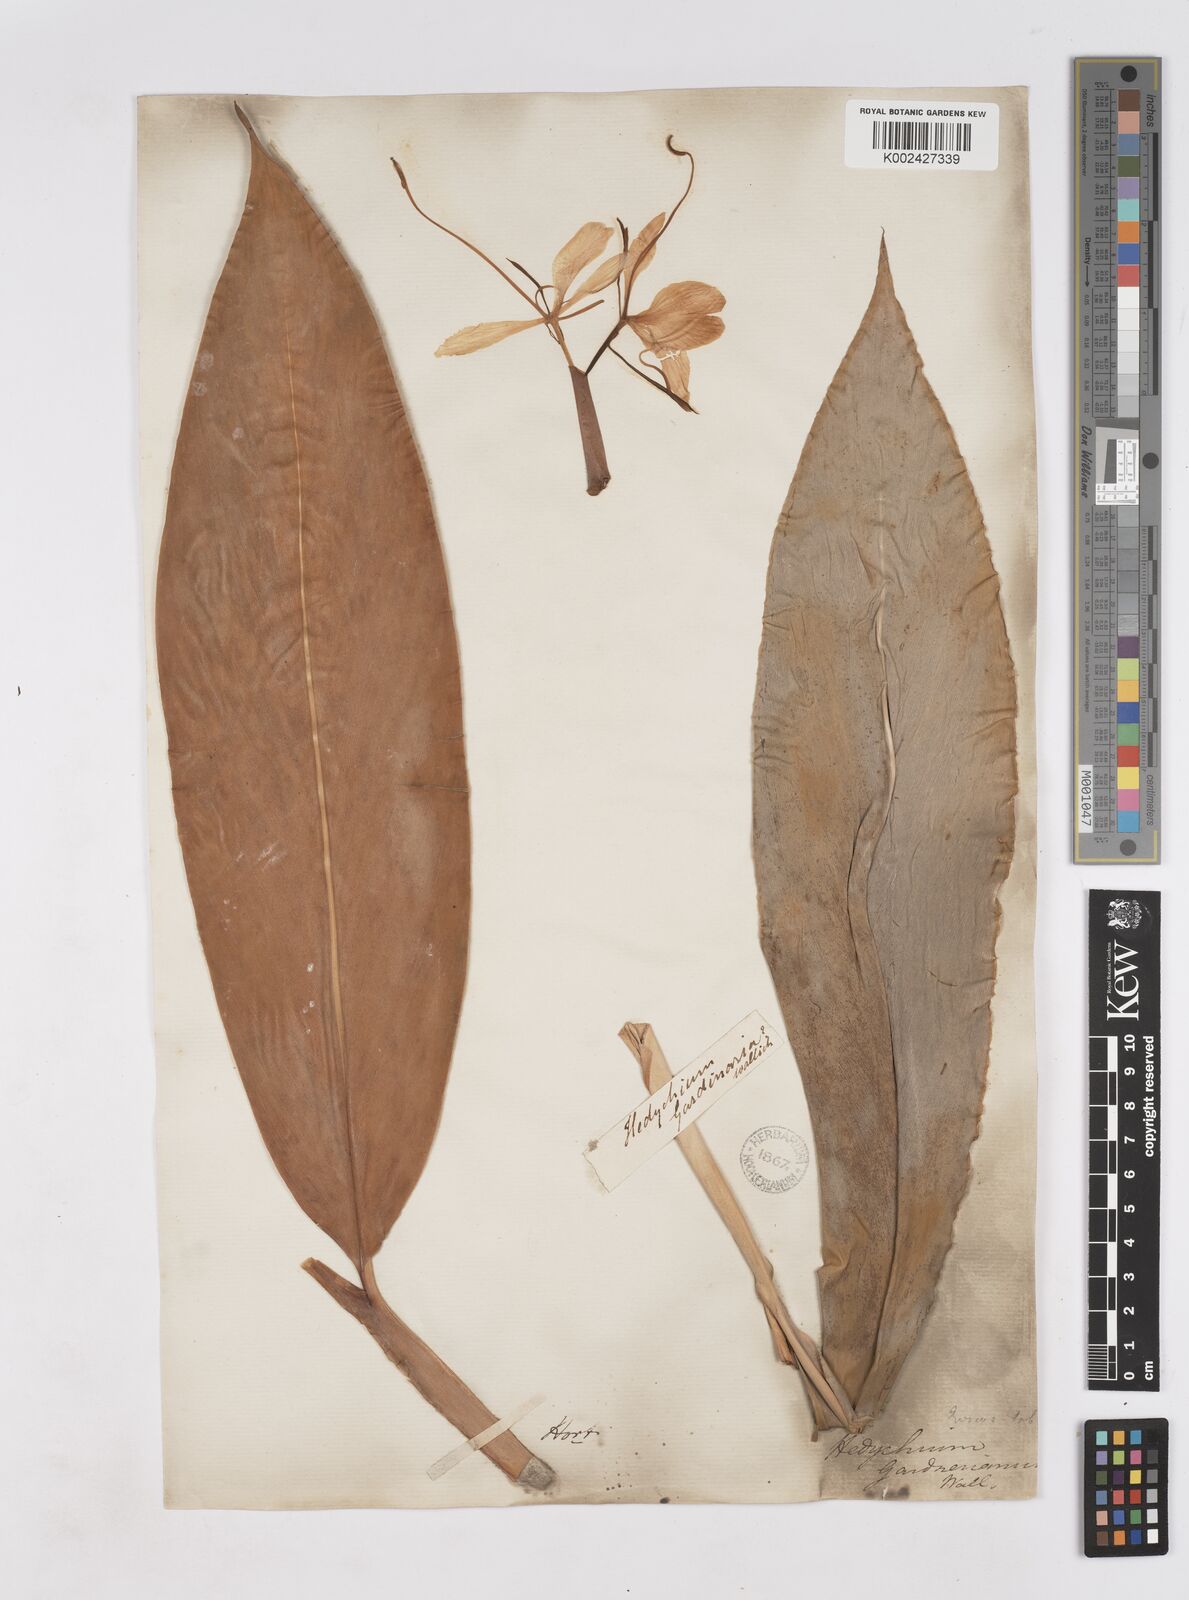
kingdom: Plantae
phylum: Tracheophyta
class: Liliopsida
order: Zingiberales
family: Zingiberaceae
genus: Hedychium
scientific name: Hedychium gardnerianum
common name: Himalayan ginger
